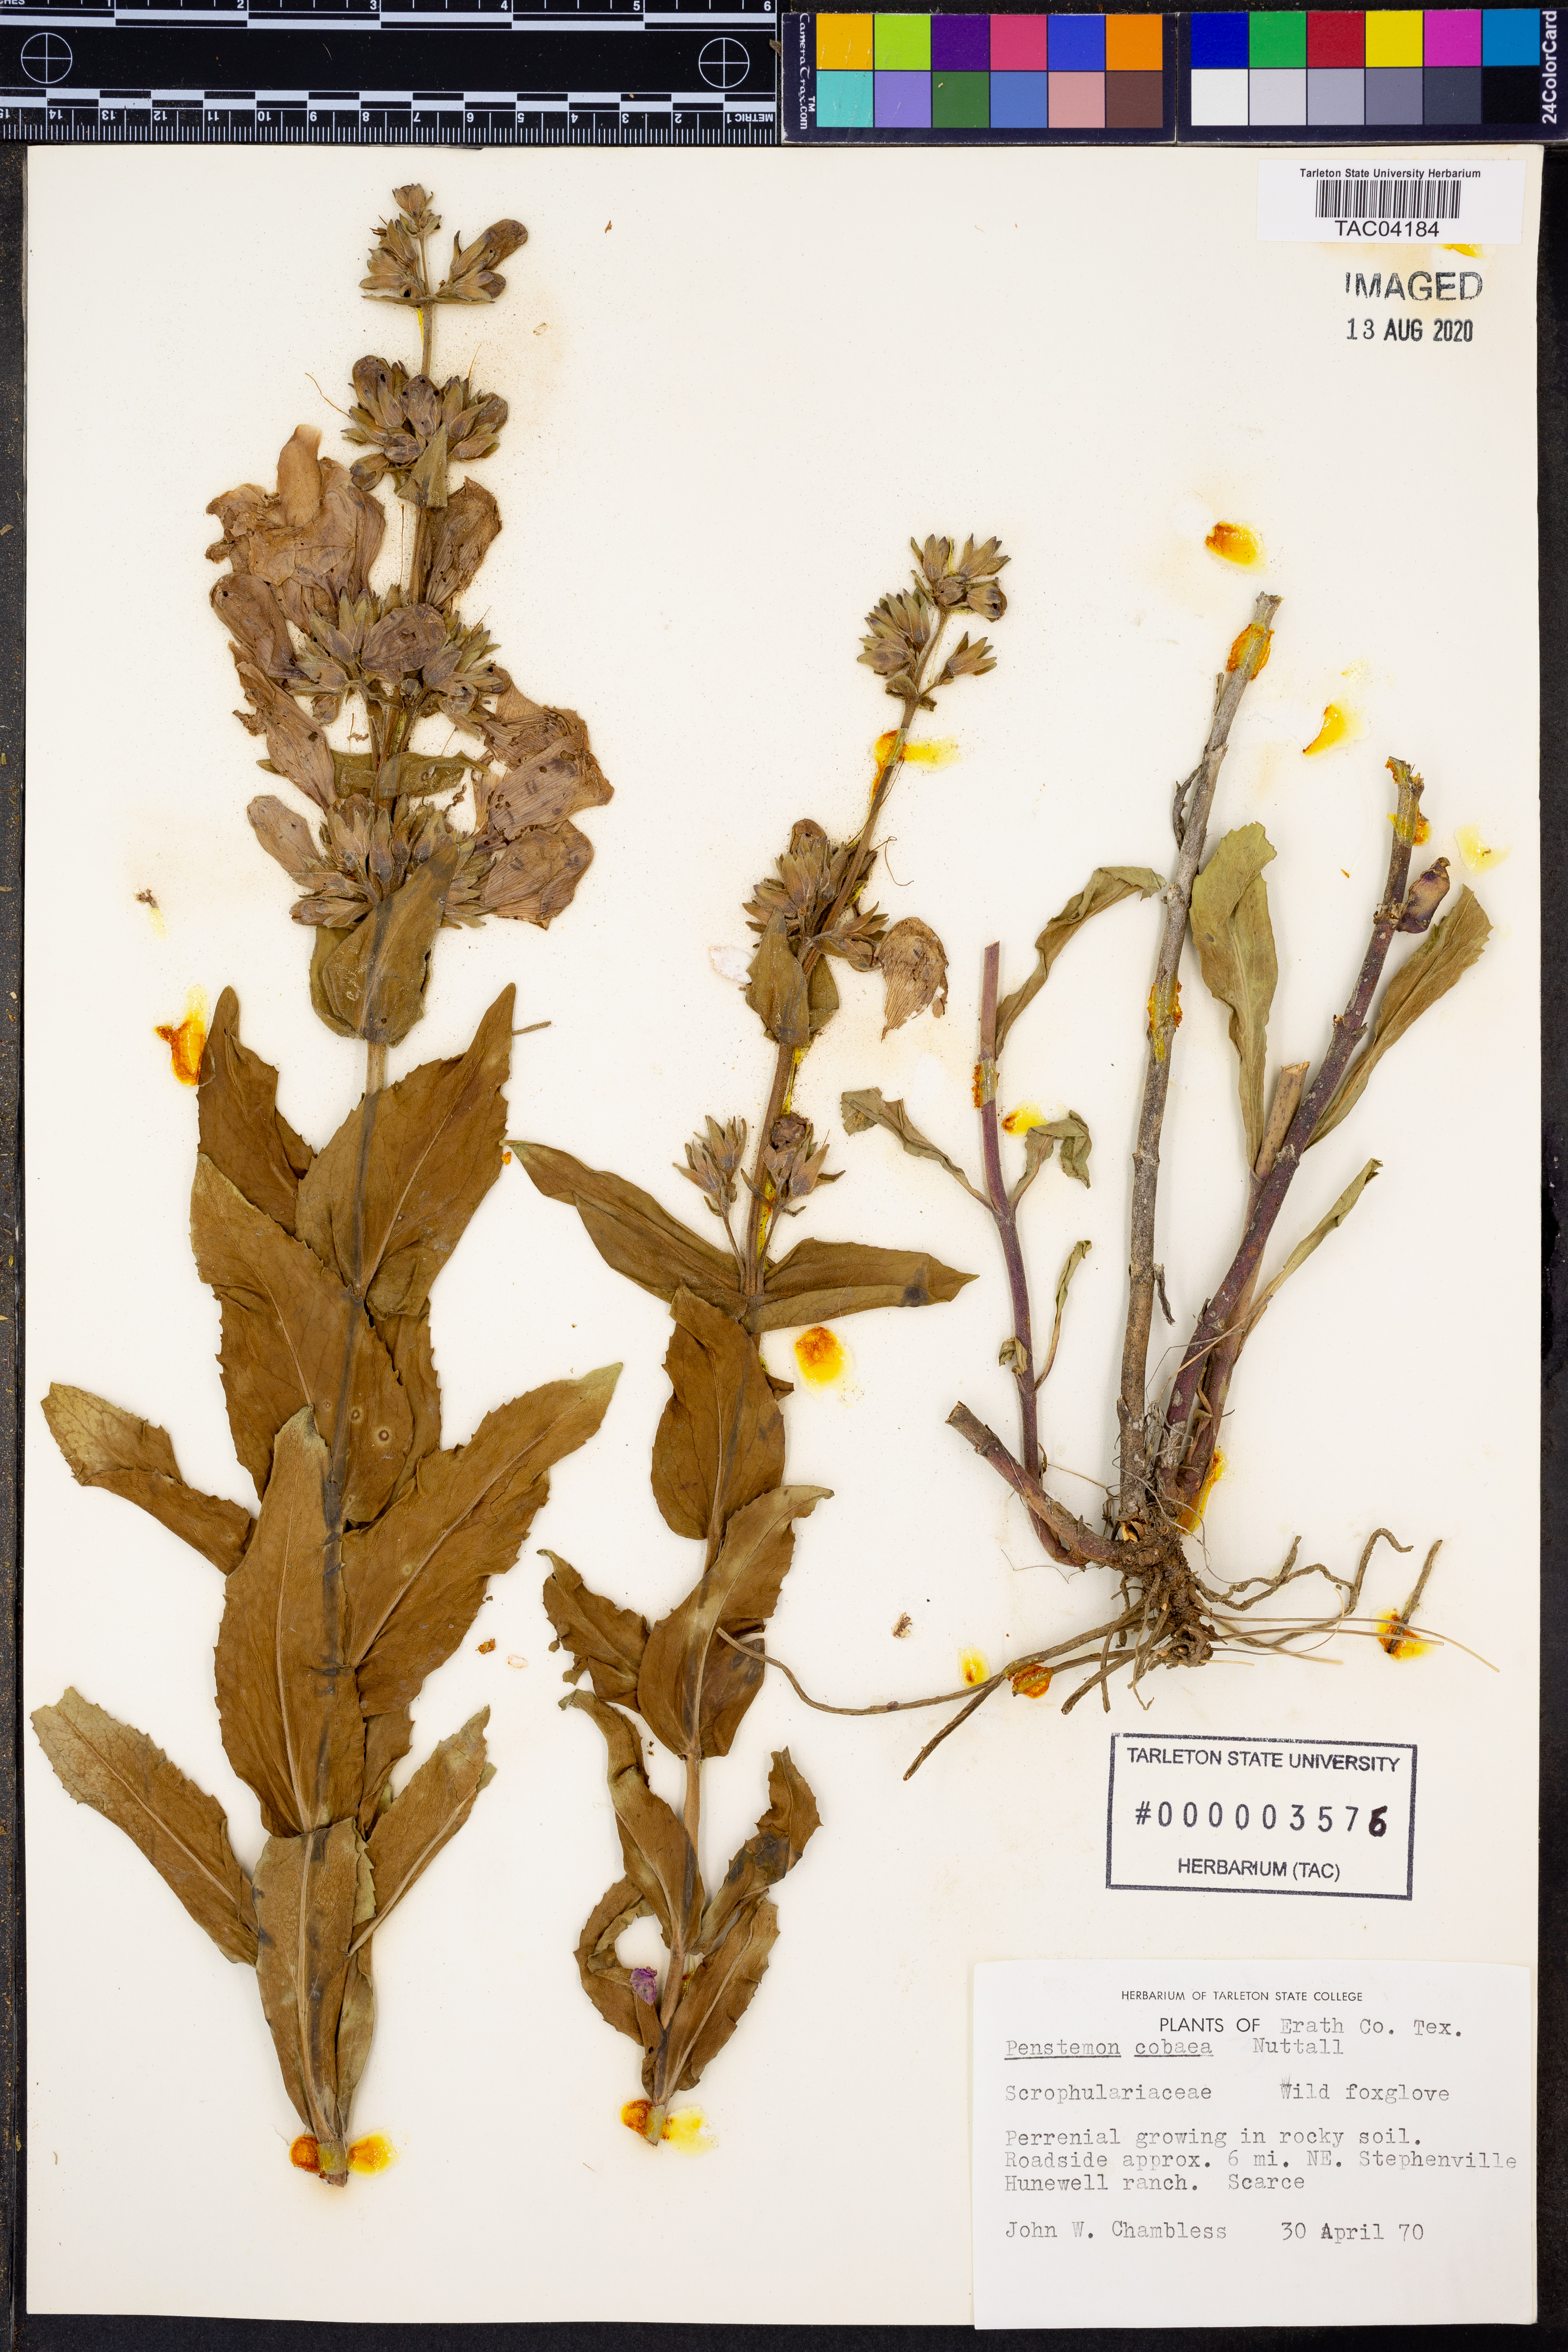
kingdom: Plantae
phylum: Tracheophyta
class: Magnoliopsida
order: Lamiales
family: Plantaginaceae
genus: Penstemon
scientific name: Penstemon cobaea
